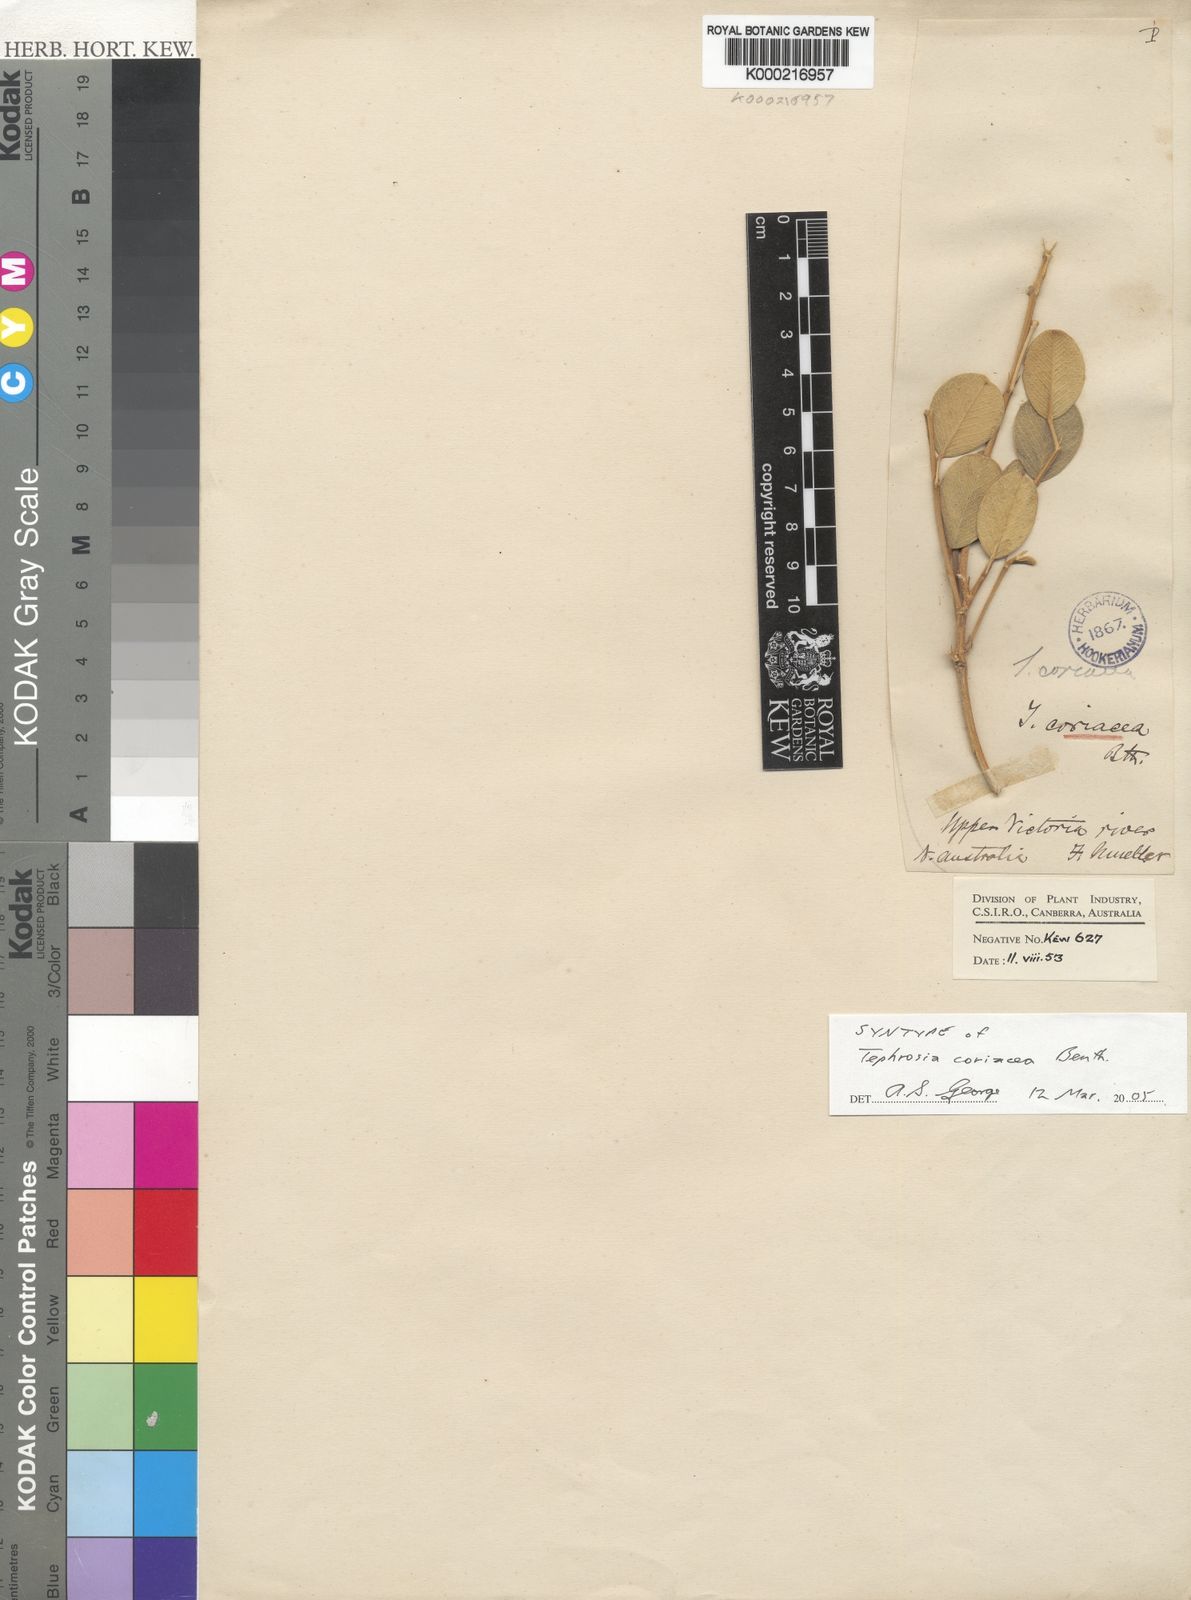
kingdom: Plantae
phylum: Tracheophyta
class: Magnoliopsida
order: Fabales
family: Fabaceae
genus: Tephrosia
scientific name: Tephrosia coriacea
